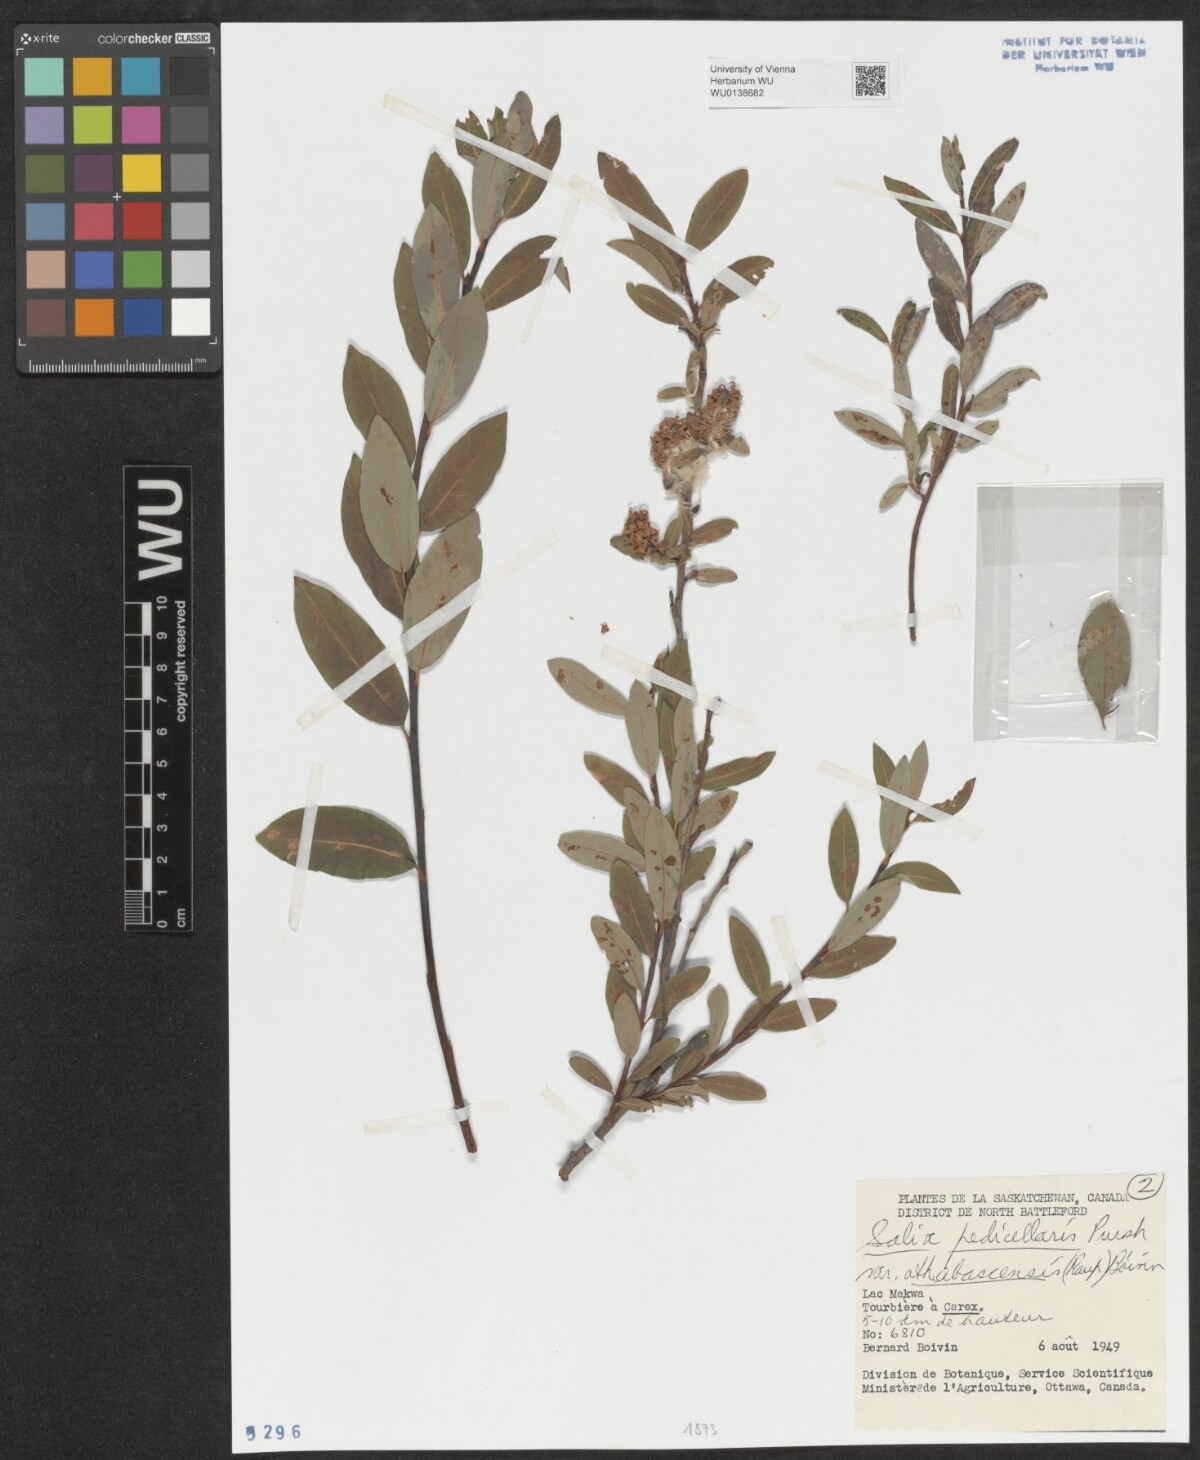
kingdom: Plantae
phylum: Tracheophyta
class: Magnoliopsida
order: Malpighiales
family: Salicaceae
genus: Salix
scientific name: Salix pedicellaris
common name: Bog willow
